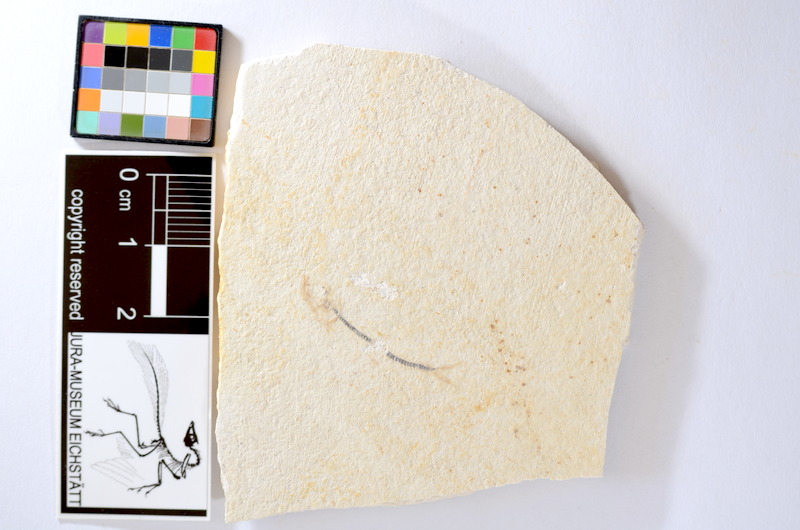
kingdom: Animalia
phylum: Chordata
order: Salmoniformes
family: Orthogonikleithridae
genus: Orthogonikleithrus
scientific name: Orthogonikleithrus hoelli
